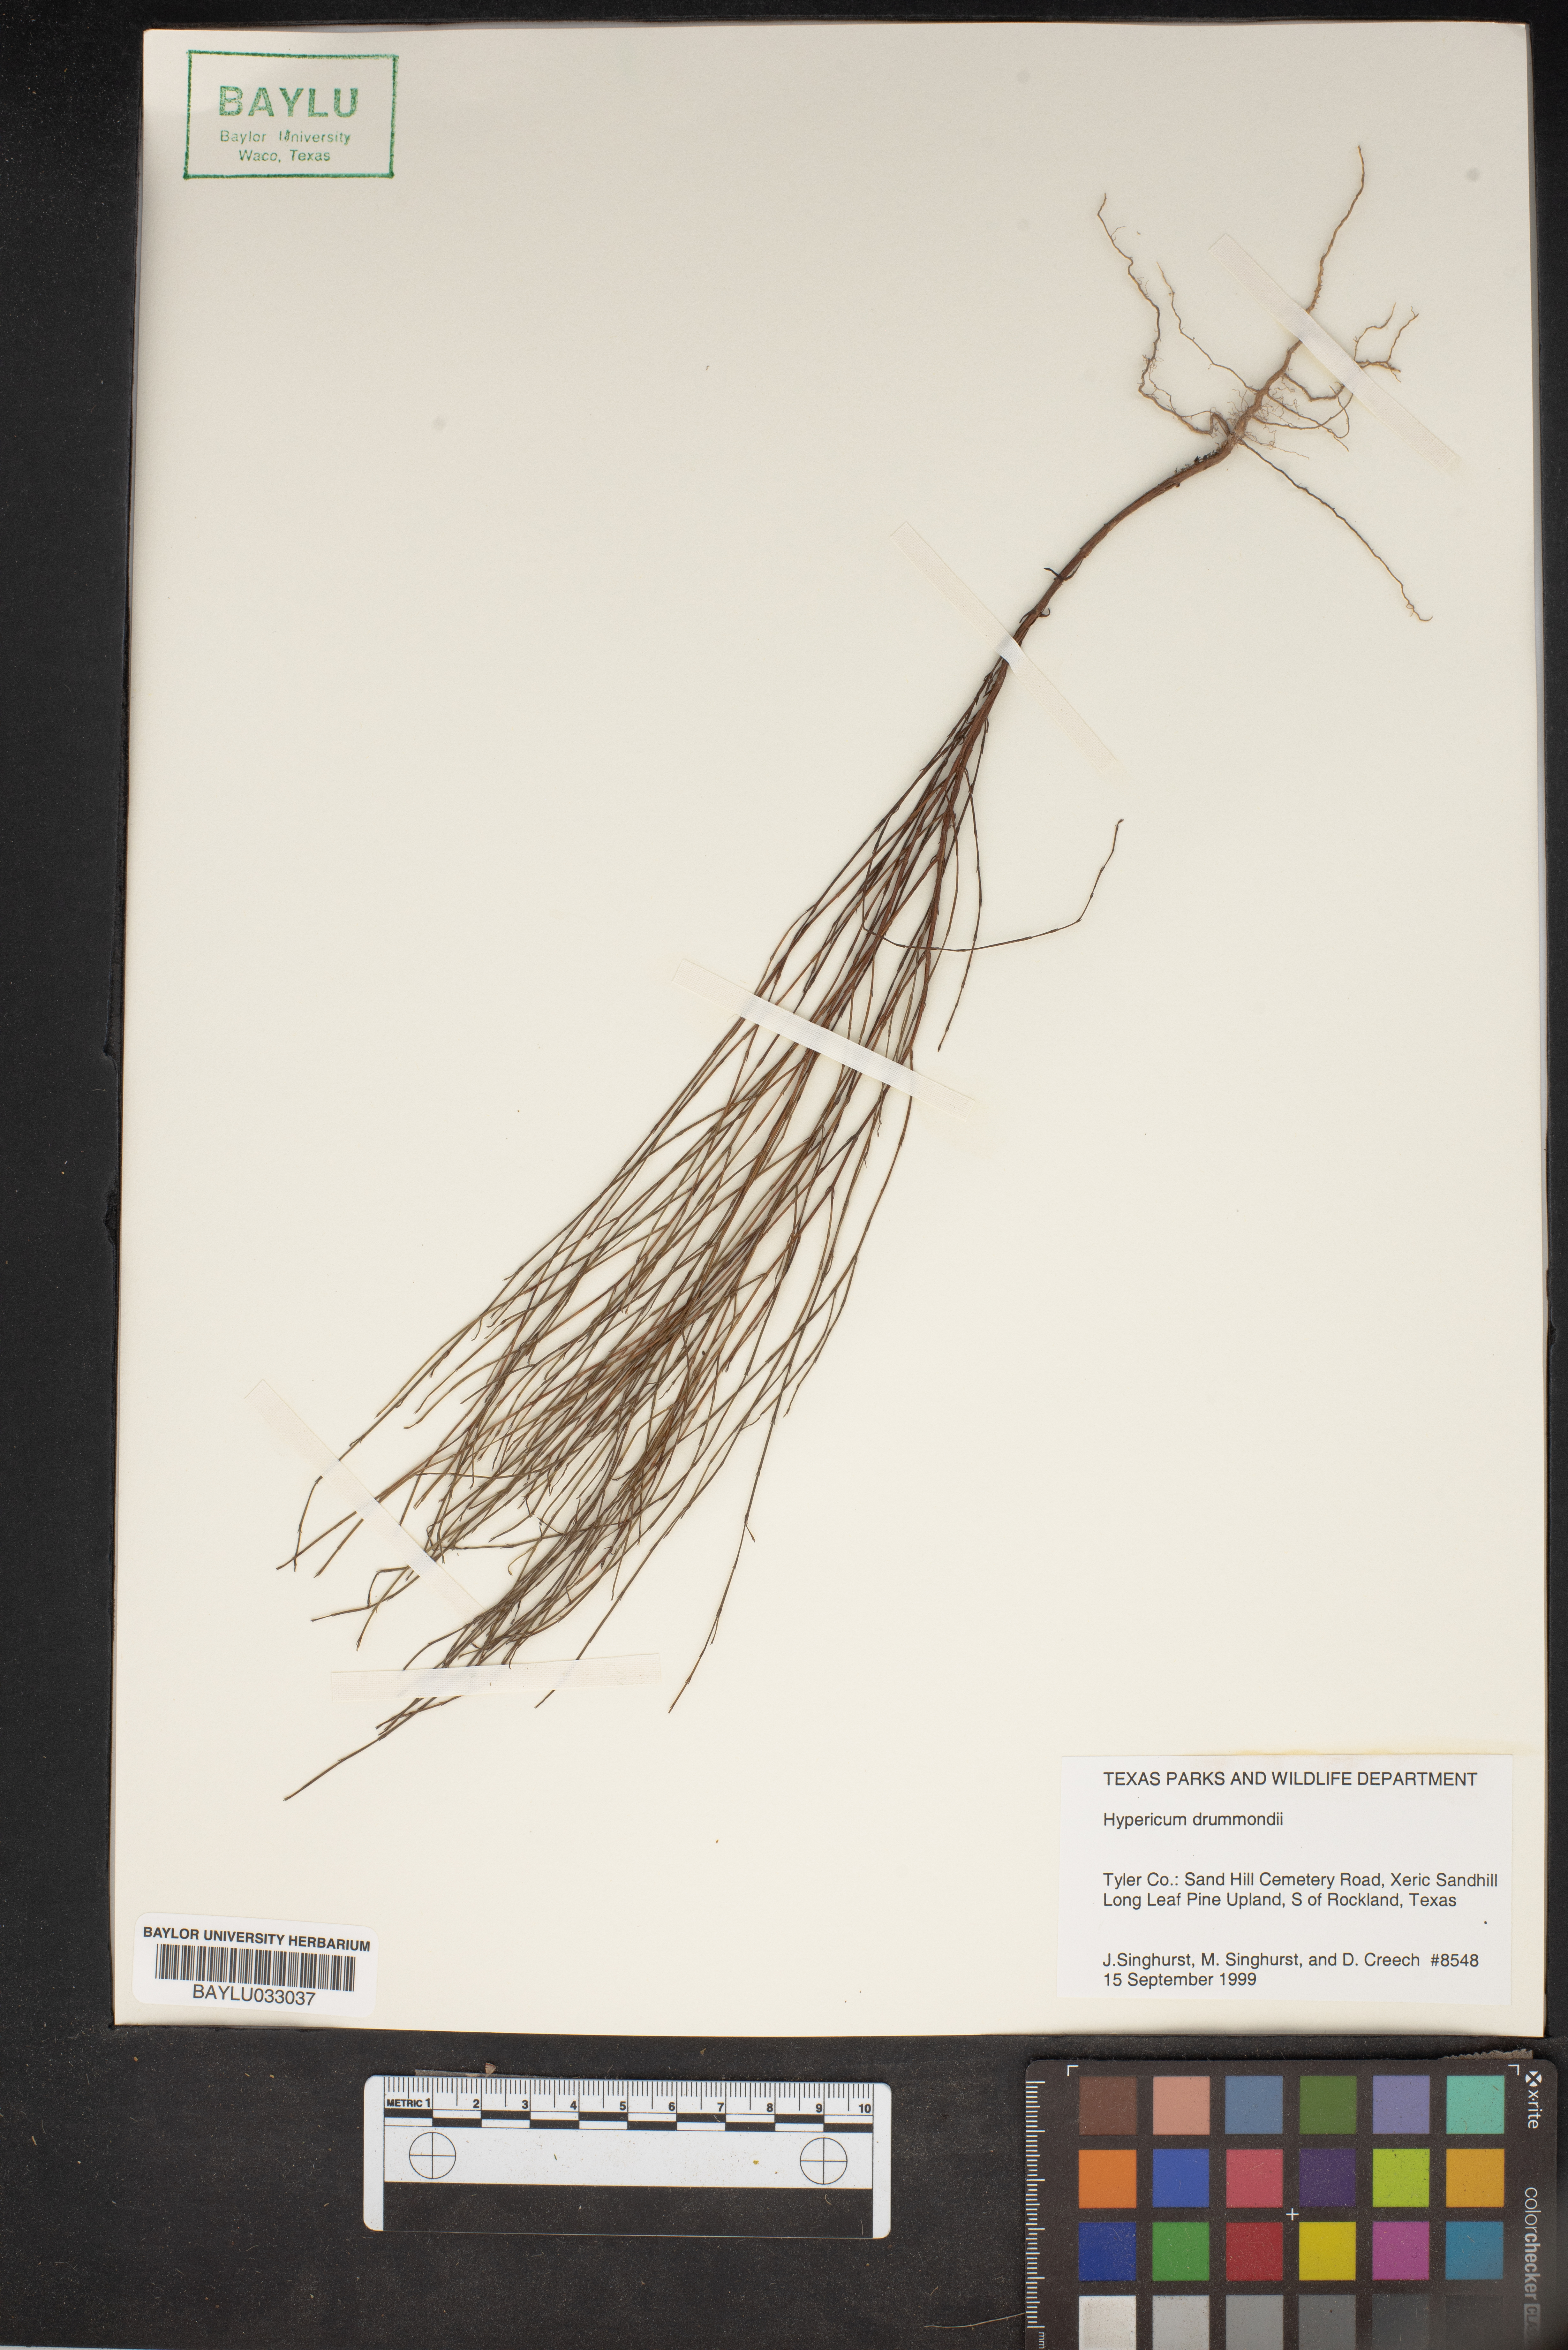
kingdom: Plantae
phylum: Tracheophyta
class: Magnoliopsida
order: Malpighiales
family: Hypericaceae
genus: Hypericum
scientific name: Hypericum drummondii
